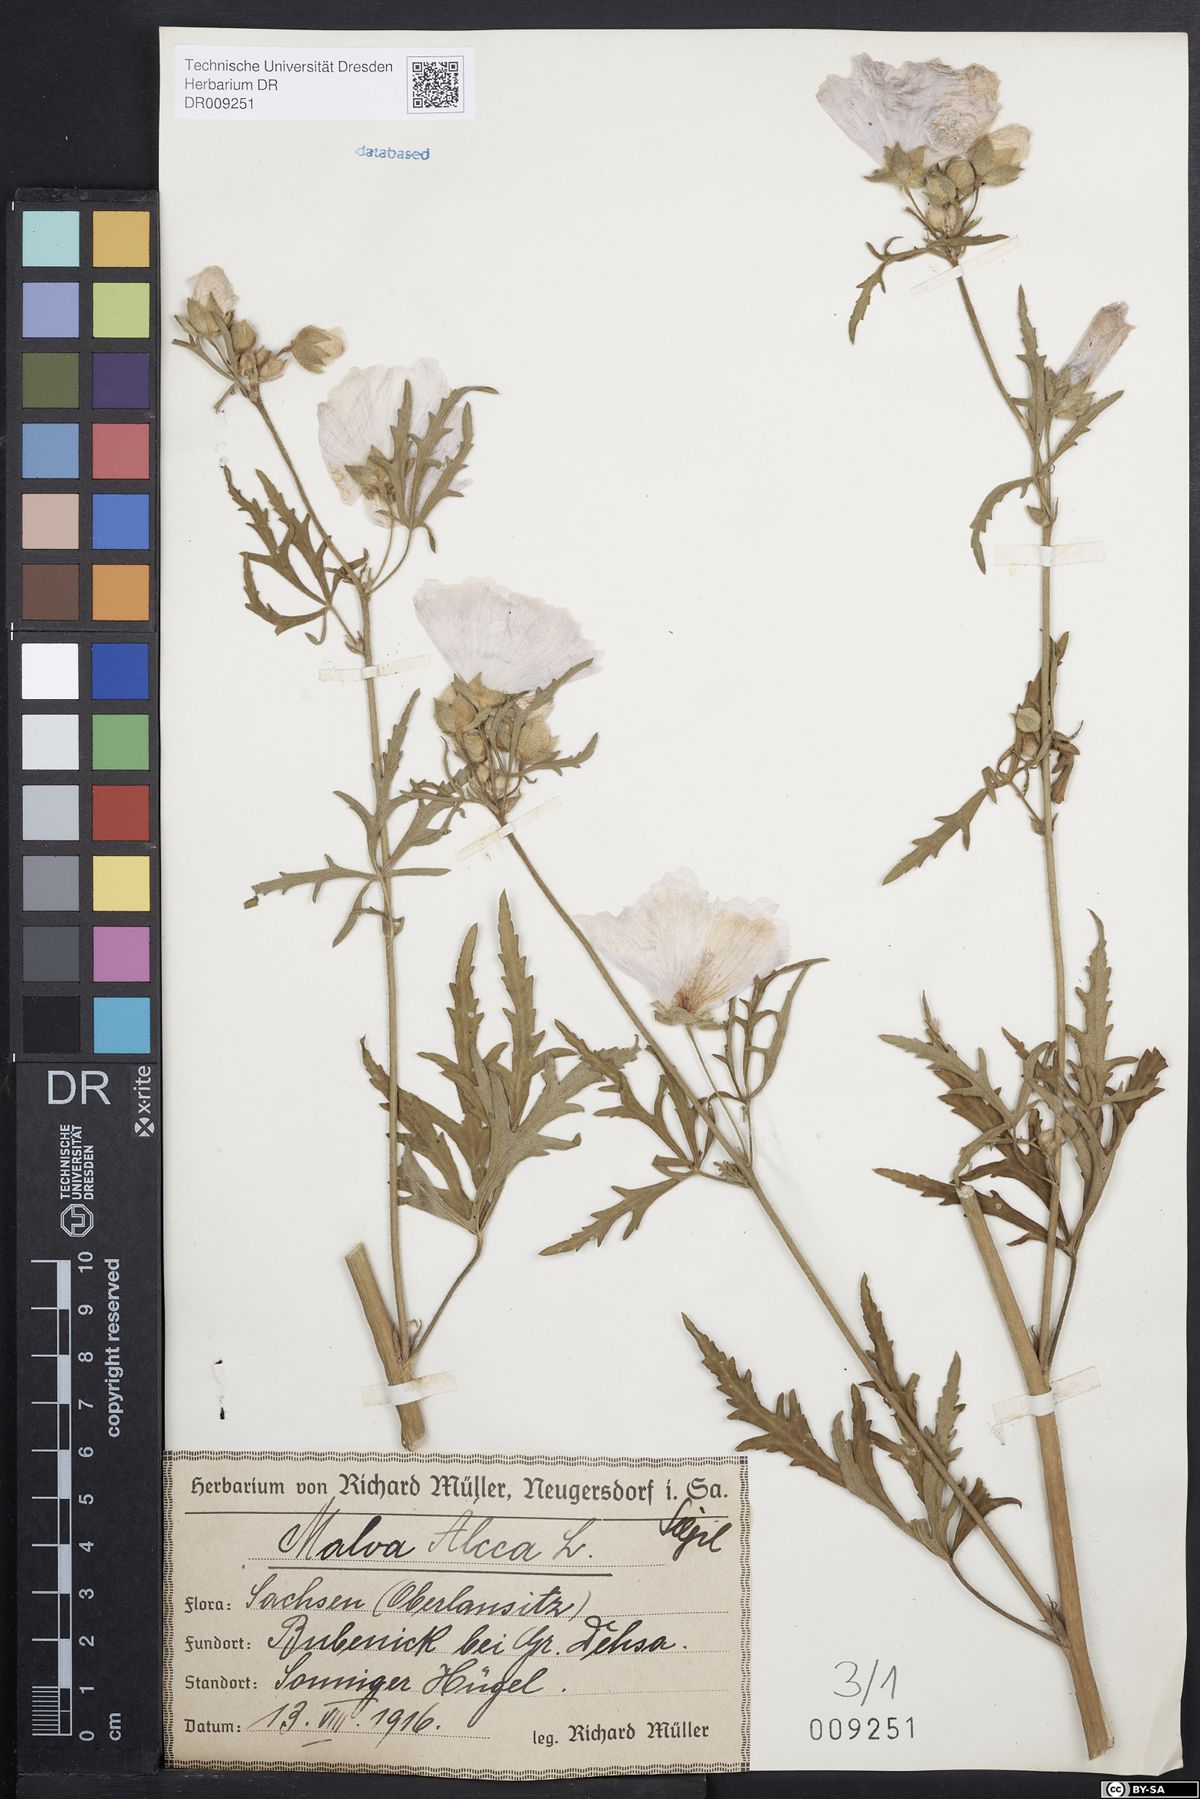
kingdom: Plantae
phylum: Tracheophyta
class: Magnoliopsida
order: Malvales
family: Malvaceae
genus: Malva
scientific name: Malva alcea
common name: Greater musk-mallow
